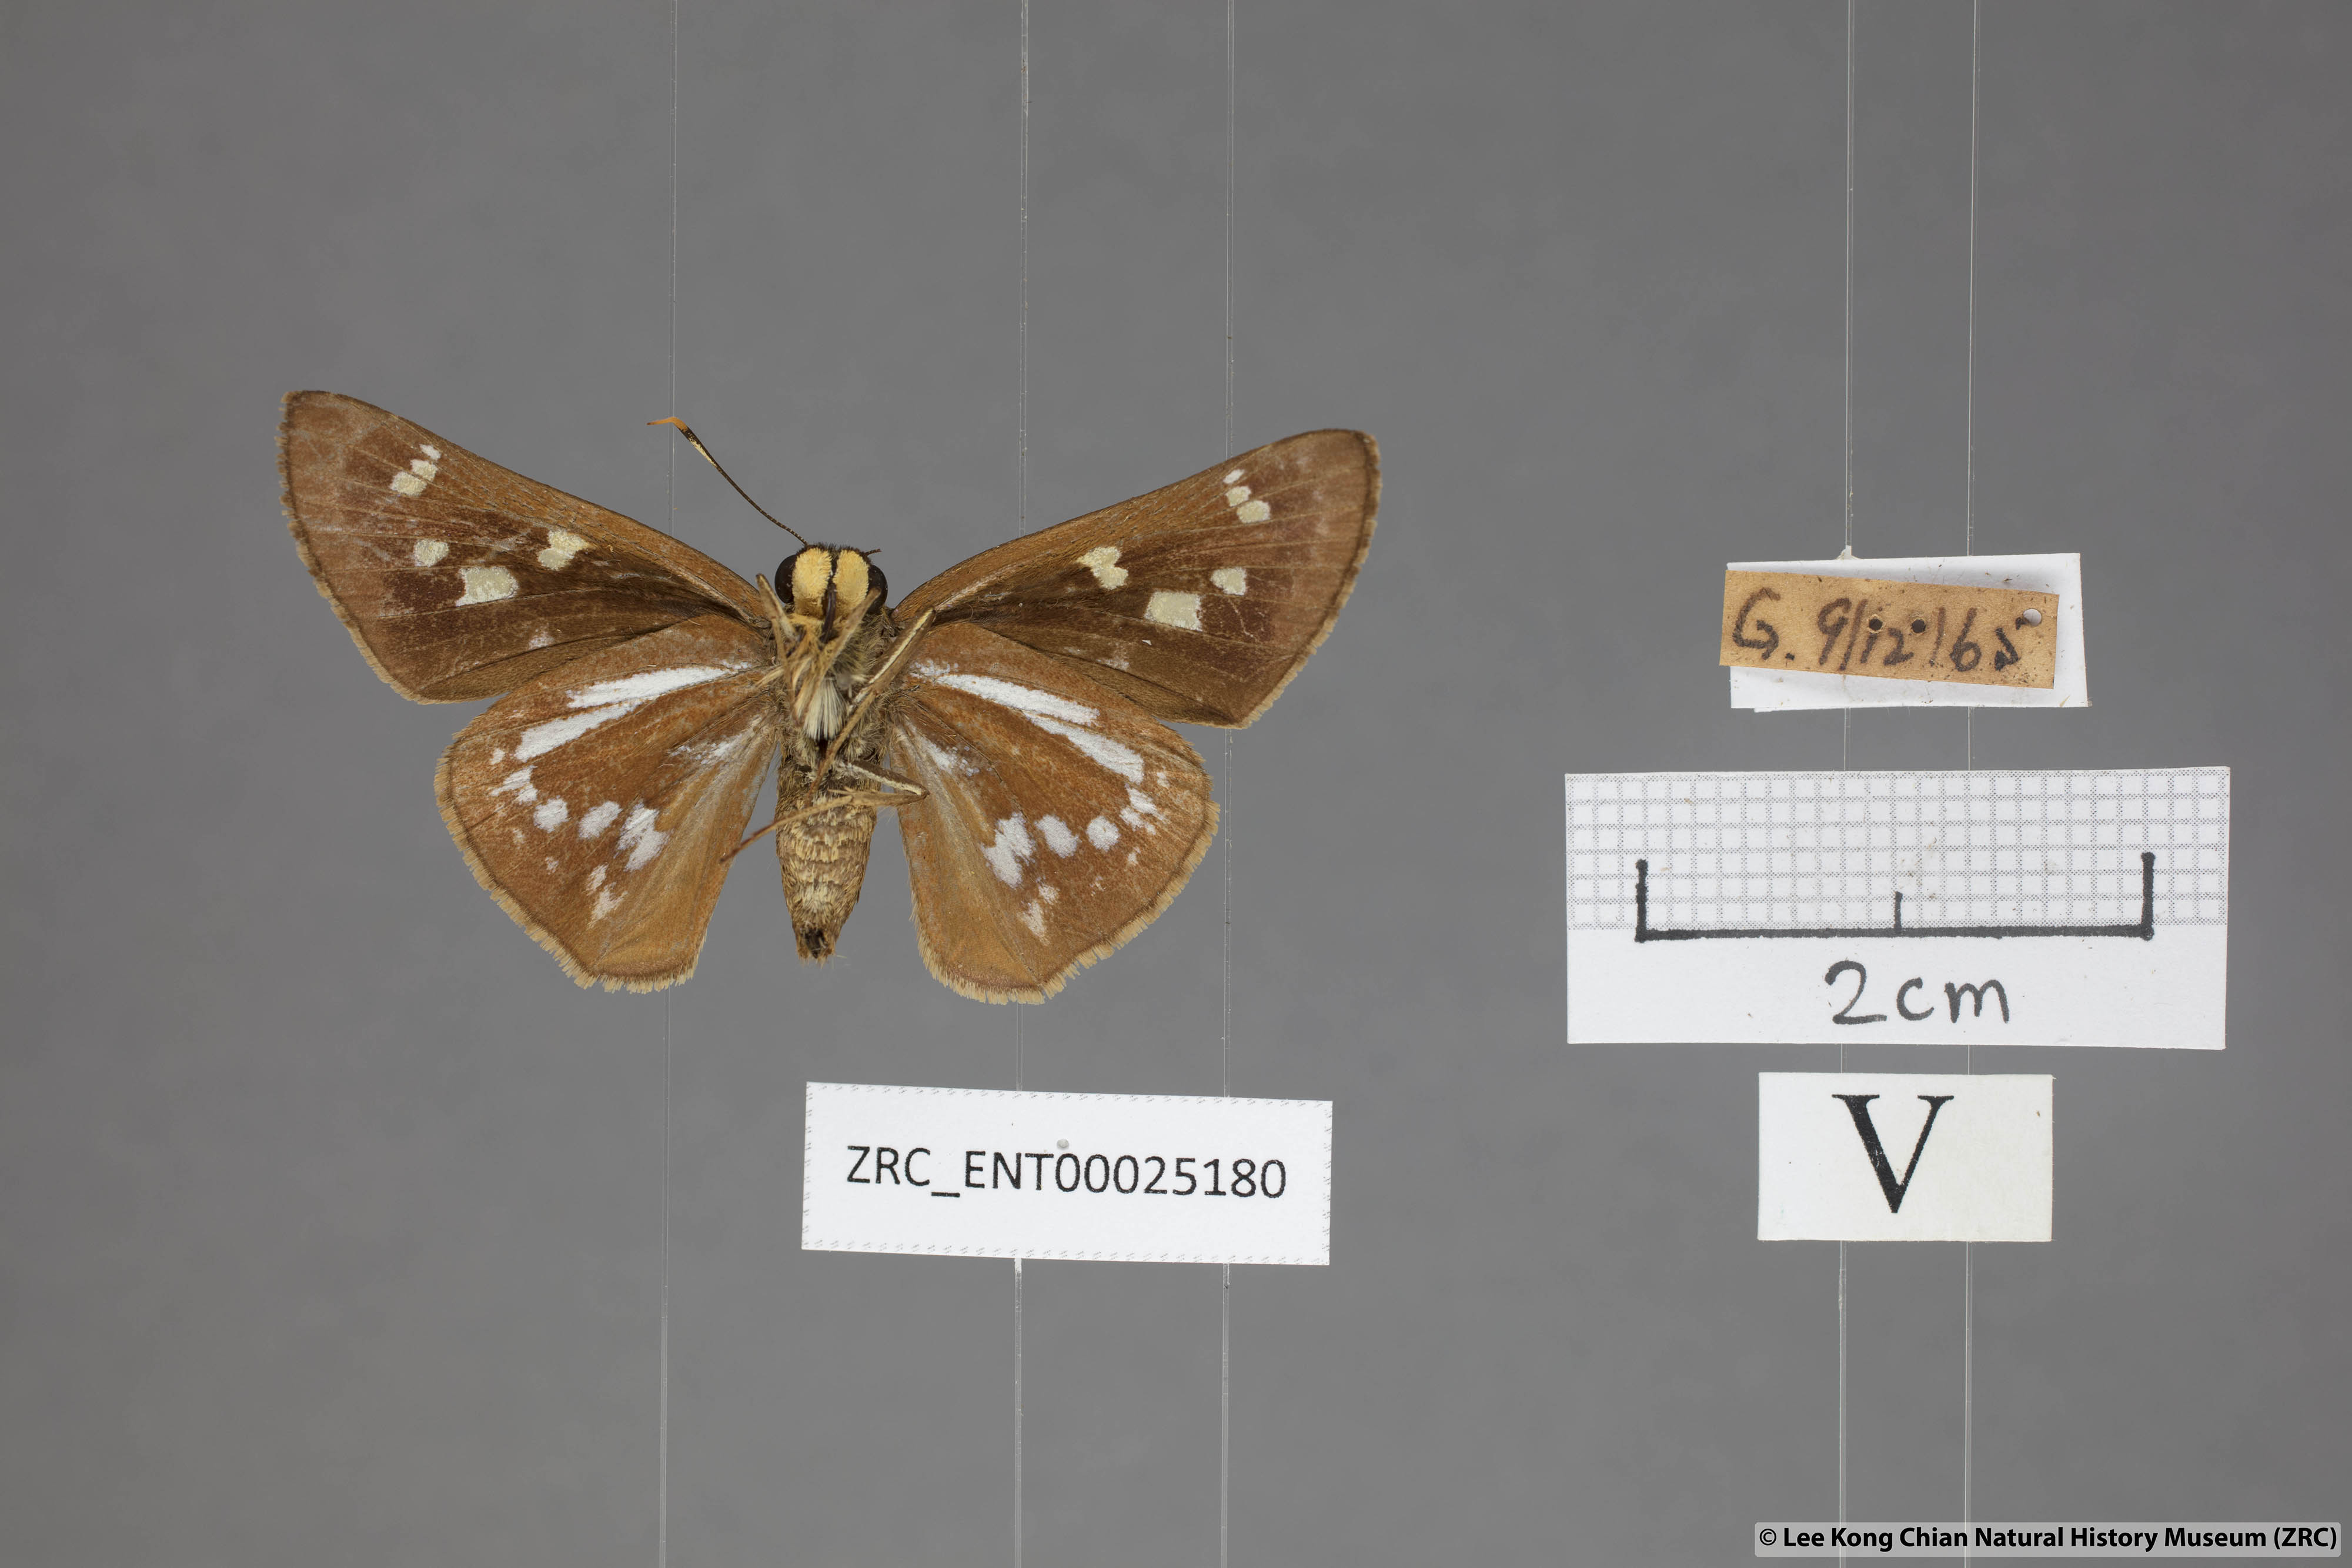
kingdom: Animalia
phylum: Arthropoda
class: Insecta
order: Lepidoptera
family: Hesperiidae
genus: Pithauria
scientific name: Pithauria marsena
